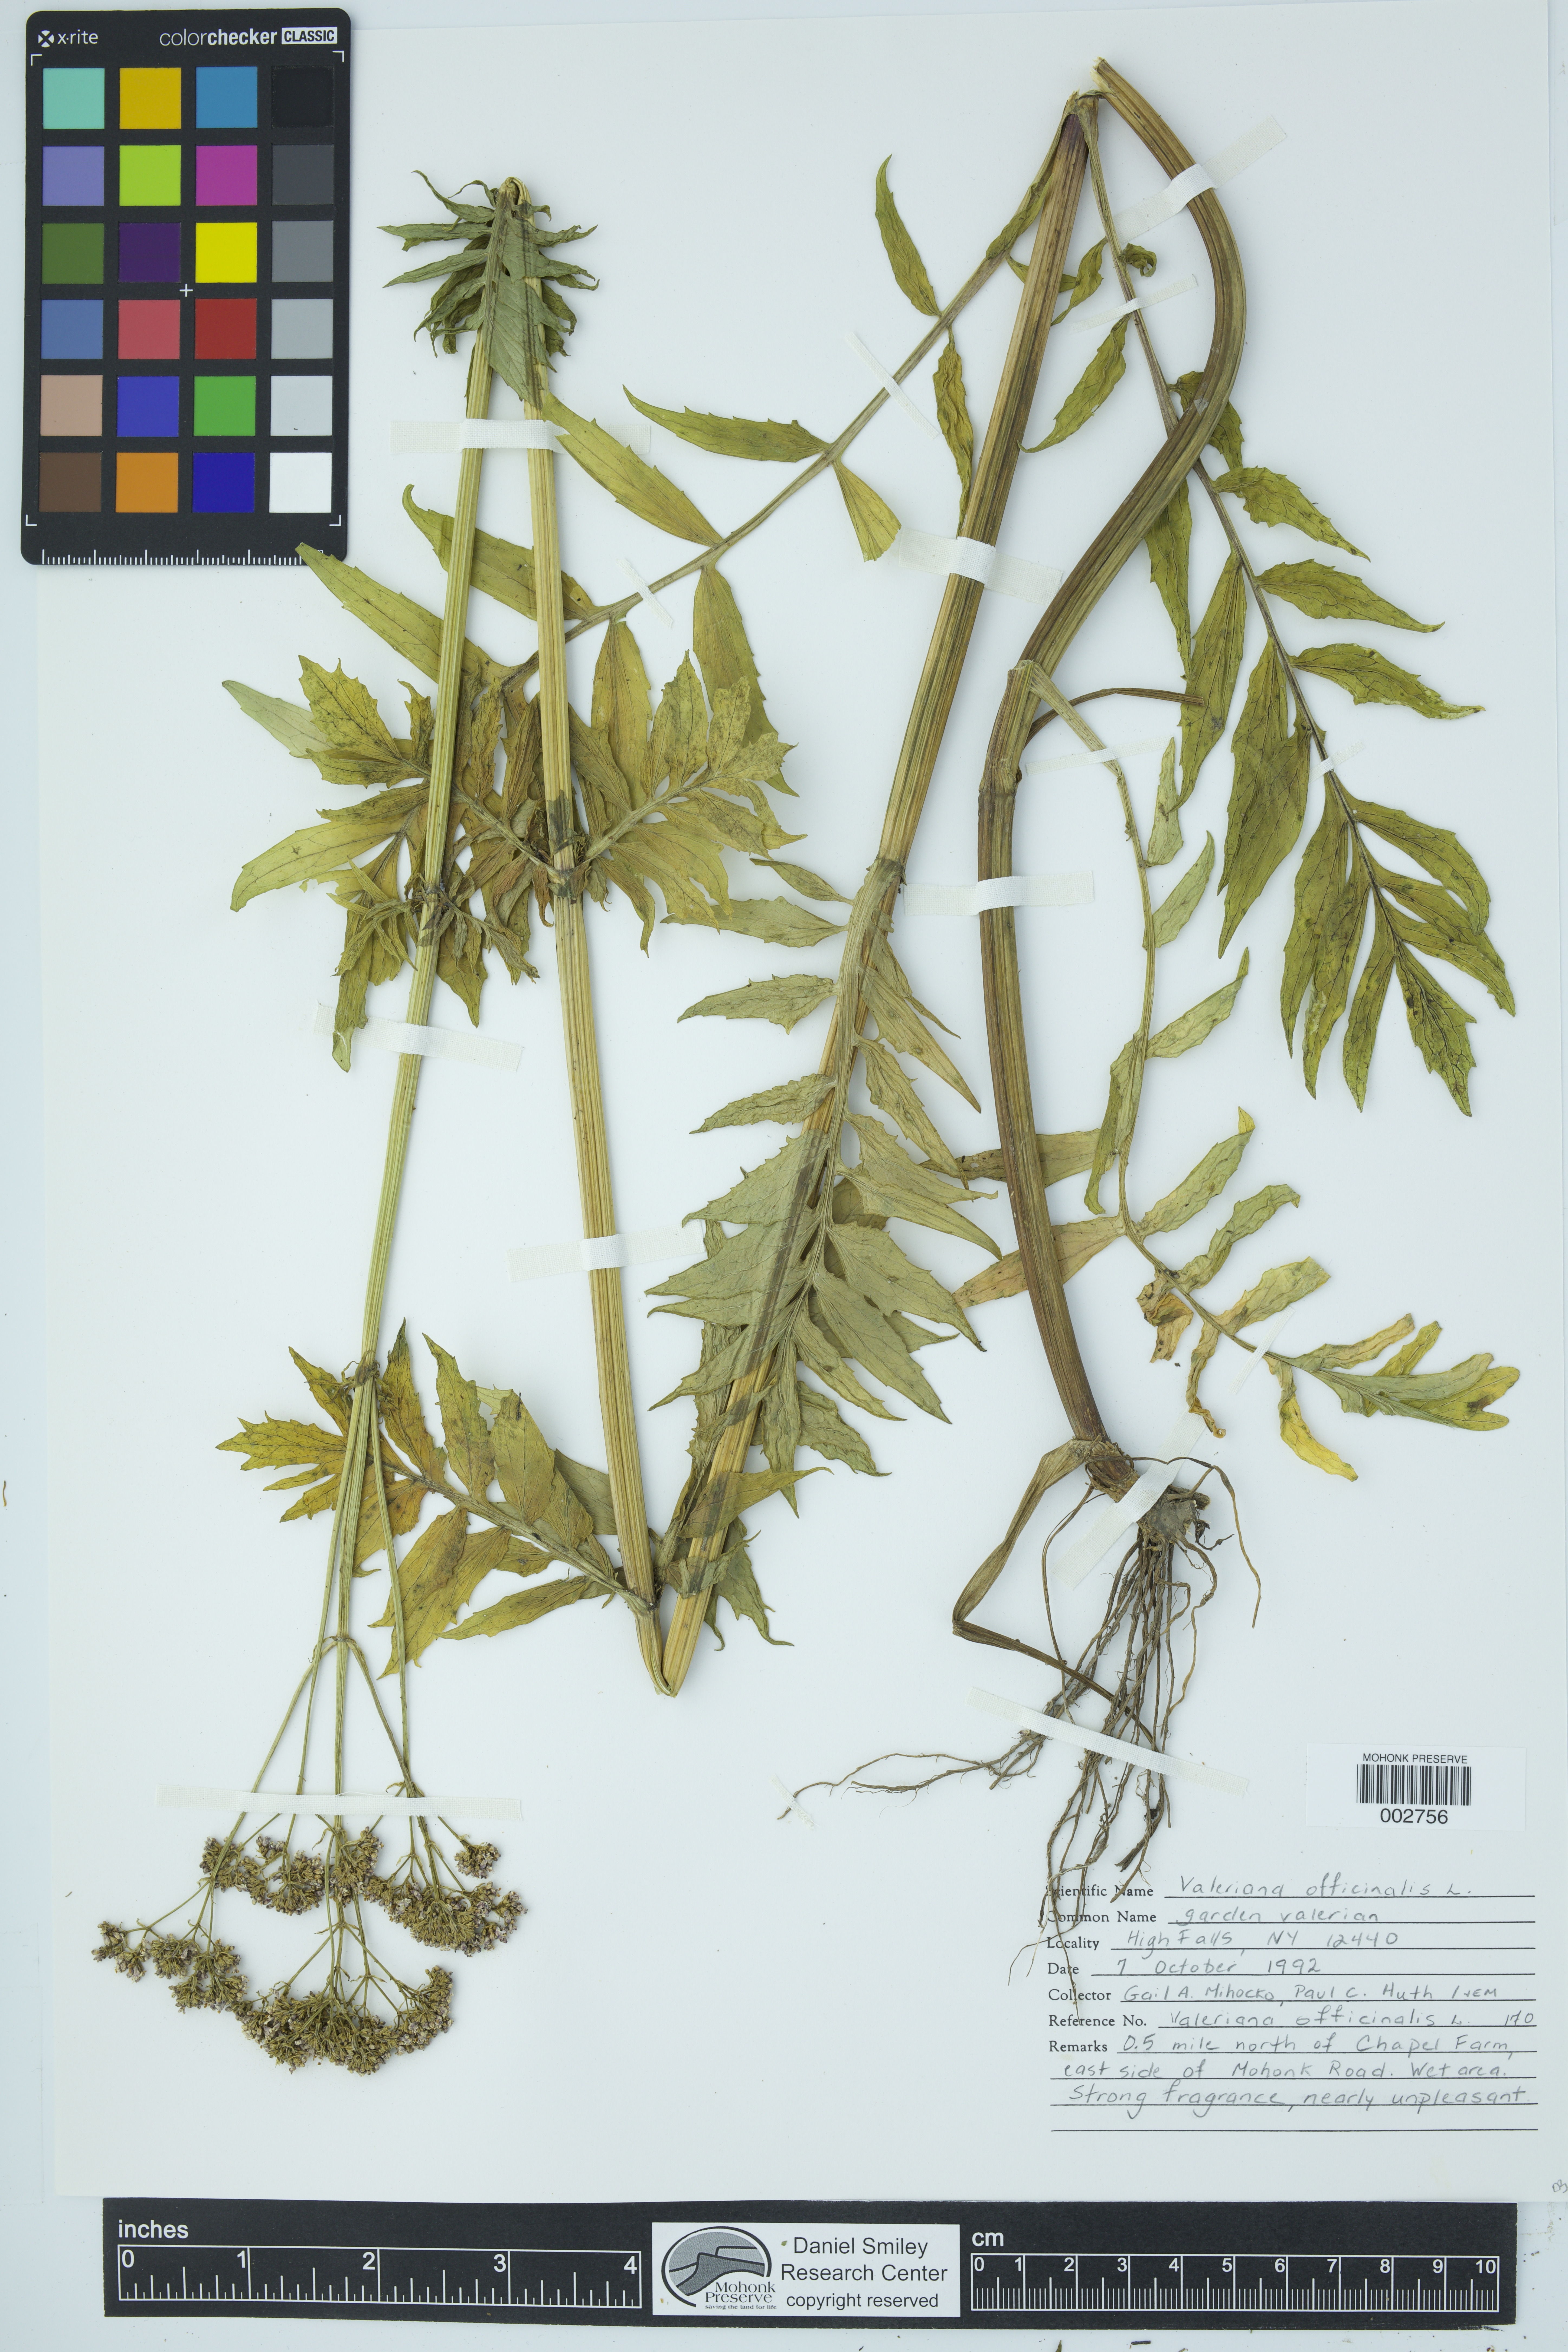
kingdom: Plantae
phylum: Tracheophyta
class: Magnoliopsida
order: Dipsacales
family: Caprifoliaceae
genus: Valeriana
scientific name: Valeriana officinalis
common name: Common valerian
